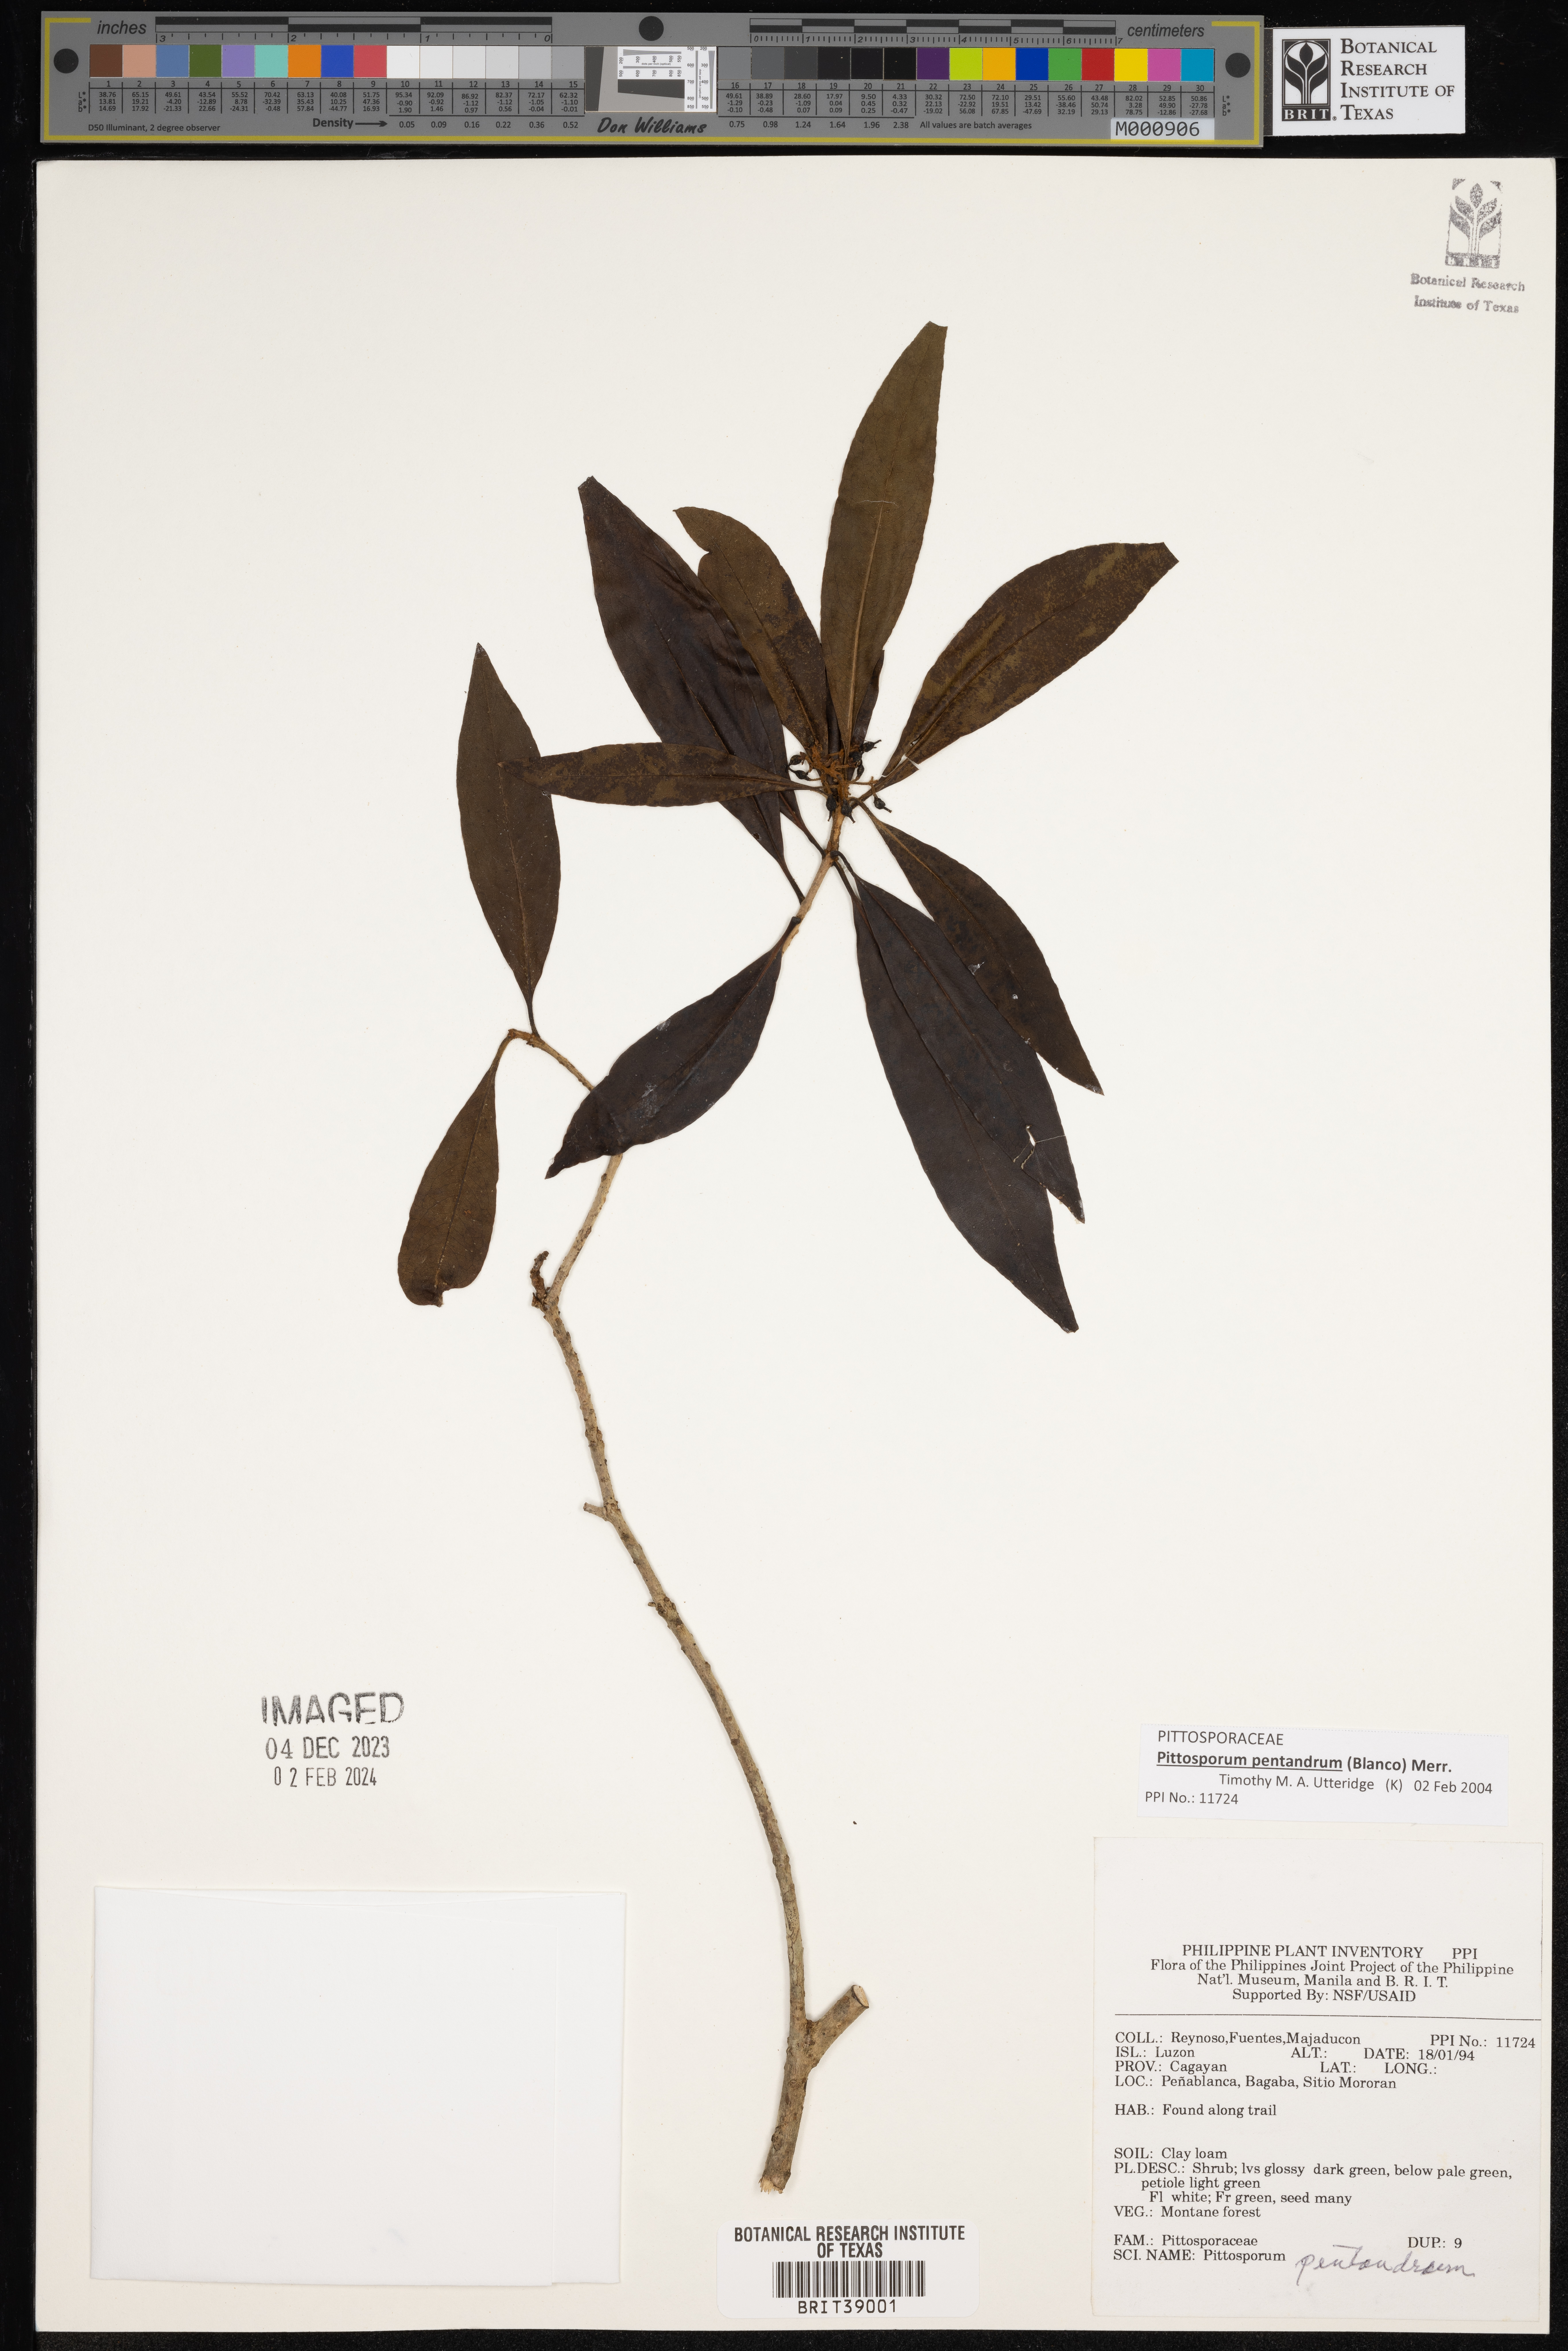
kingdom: Plantae
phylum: Tracheophyta
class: Magnoliopsida
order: Apiales
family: Pittosporaceae
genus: Pittosporum
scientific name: Pittosporum pentandrum
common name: Taiwanese cheesewood
